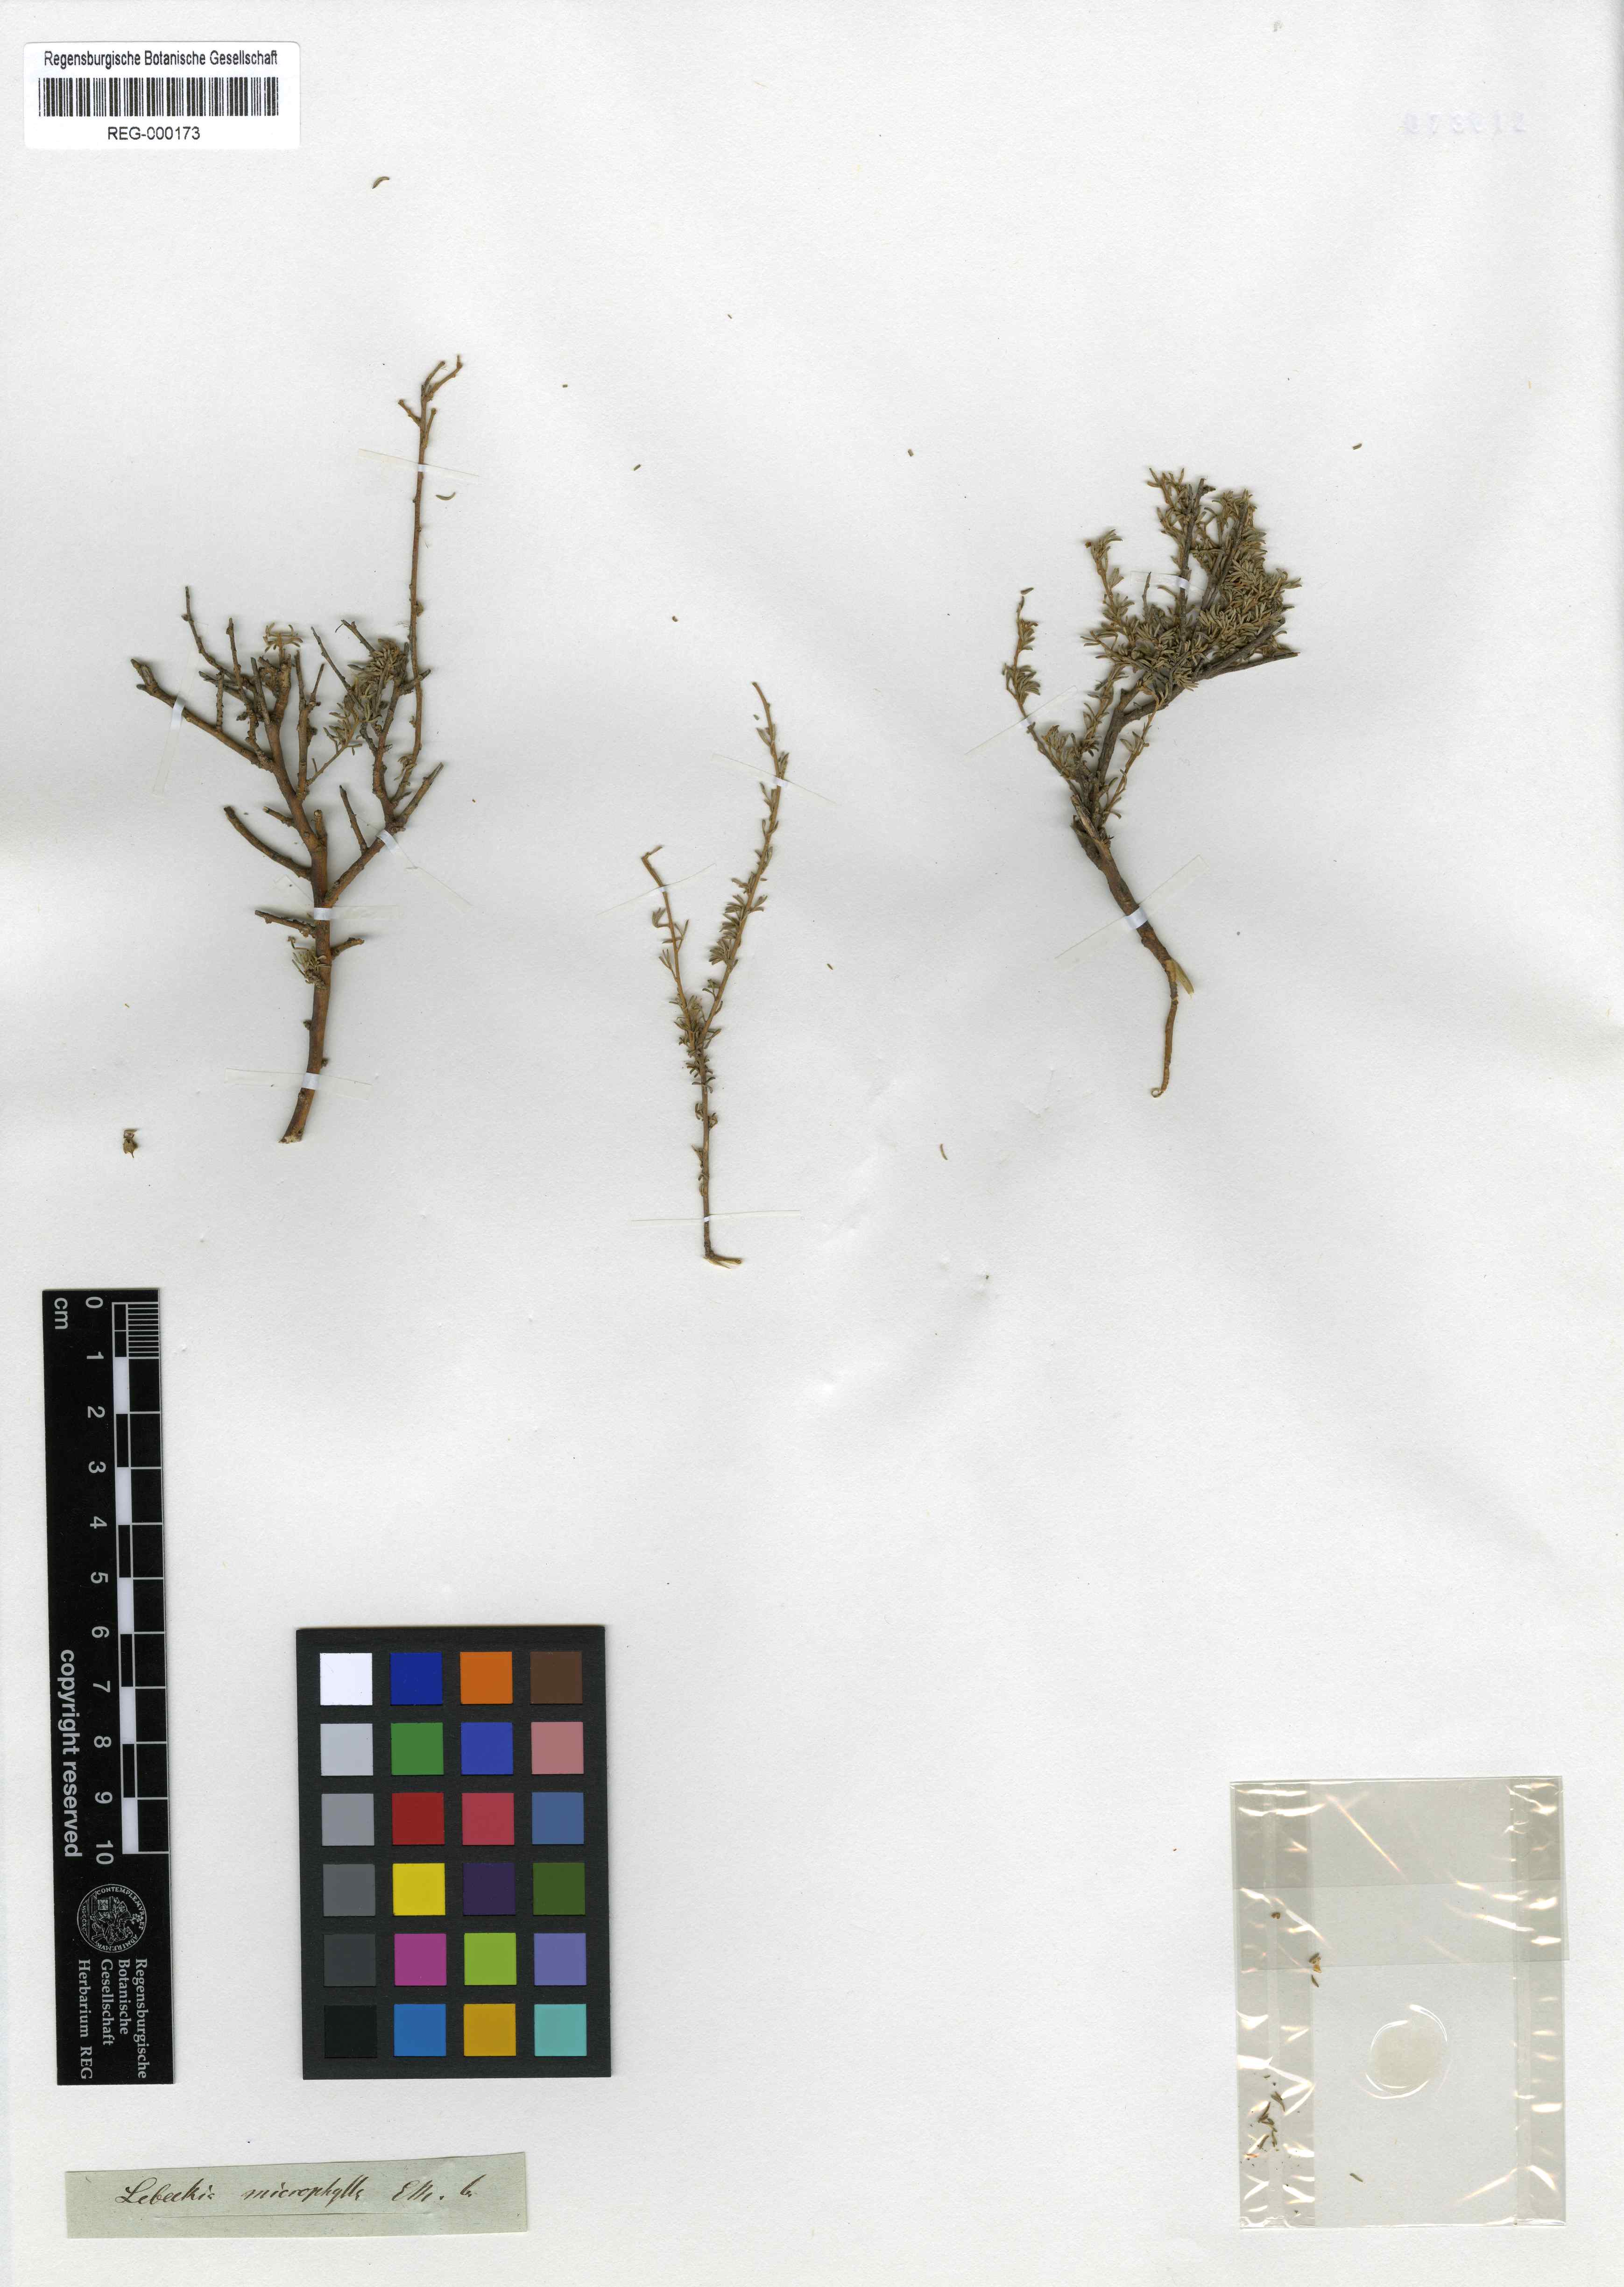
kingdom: Plantae
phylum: Tracheophyta
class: Magnoliopsida
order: Fabales
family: Fabaceae
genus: Lotononis
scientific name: Lotononis caerulescens
